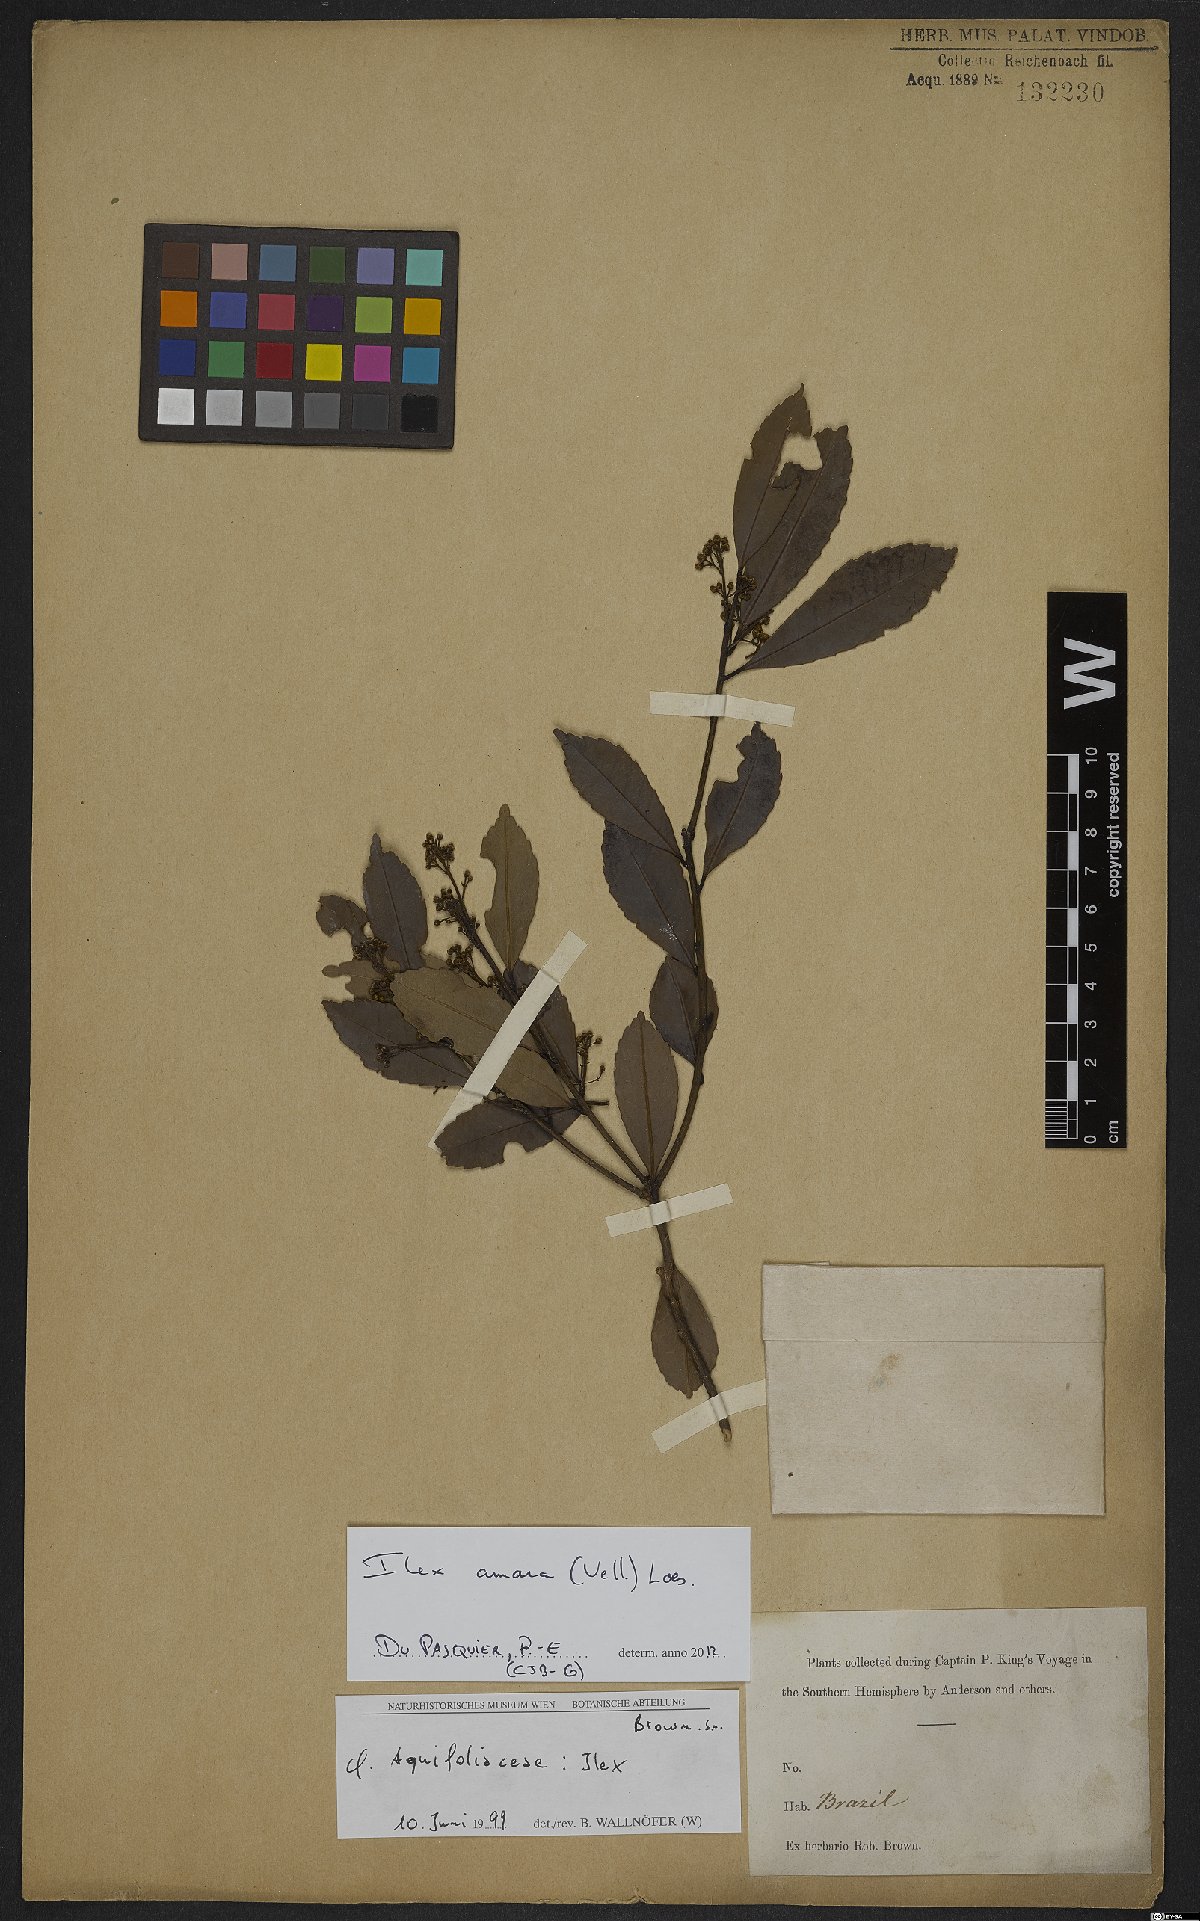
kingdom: Plantae
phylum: Tracheophyta
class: Magnoliopsida
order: Aquifoliales
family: Aquifoliaceae
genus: Ilex
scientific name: Ilex dumosa
